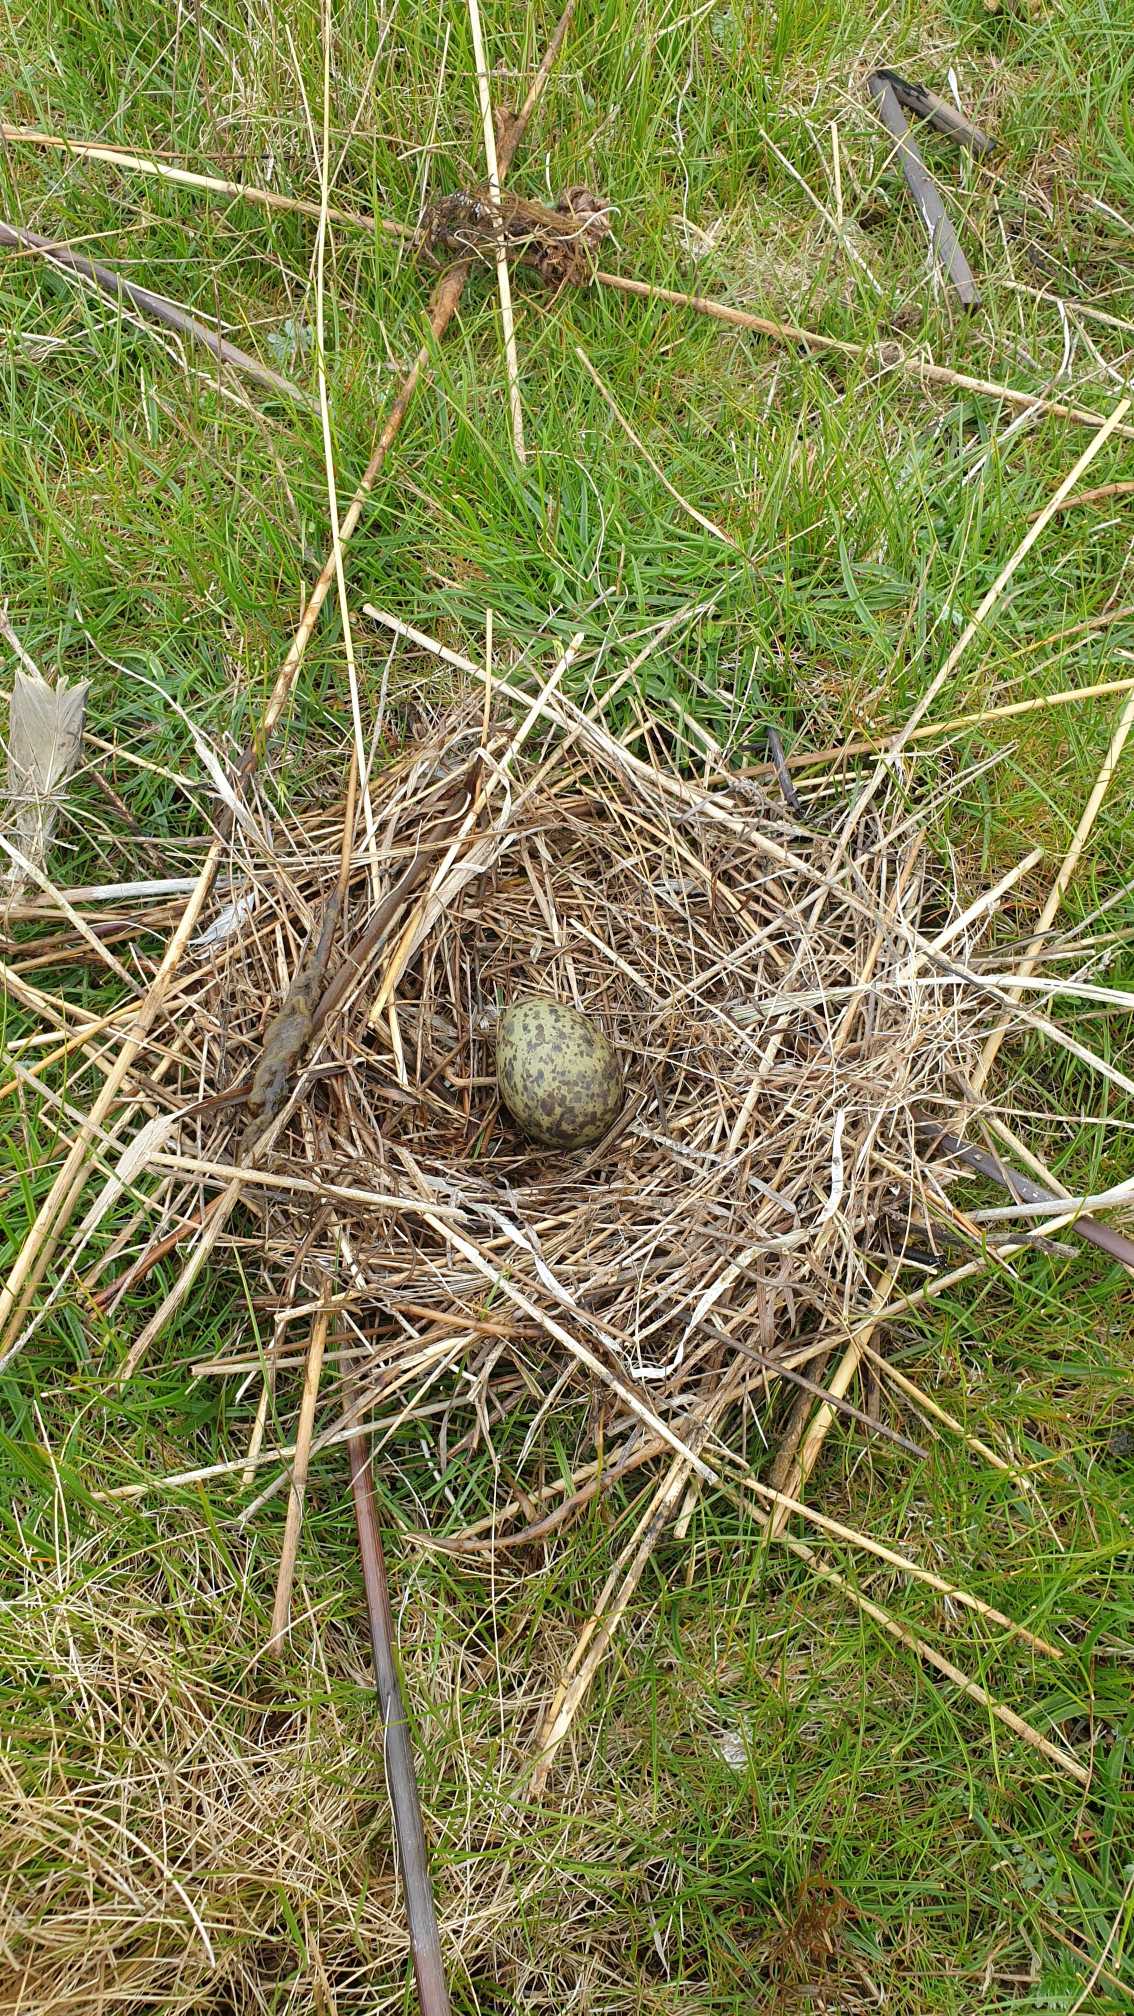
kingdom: Animalia
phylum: Chordata
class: Aves
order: Charadriiformes
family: Laridae
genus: Chroicocephalus
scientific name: Chroicocephalus ridibundus
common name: Hættemåge
